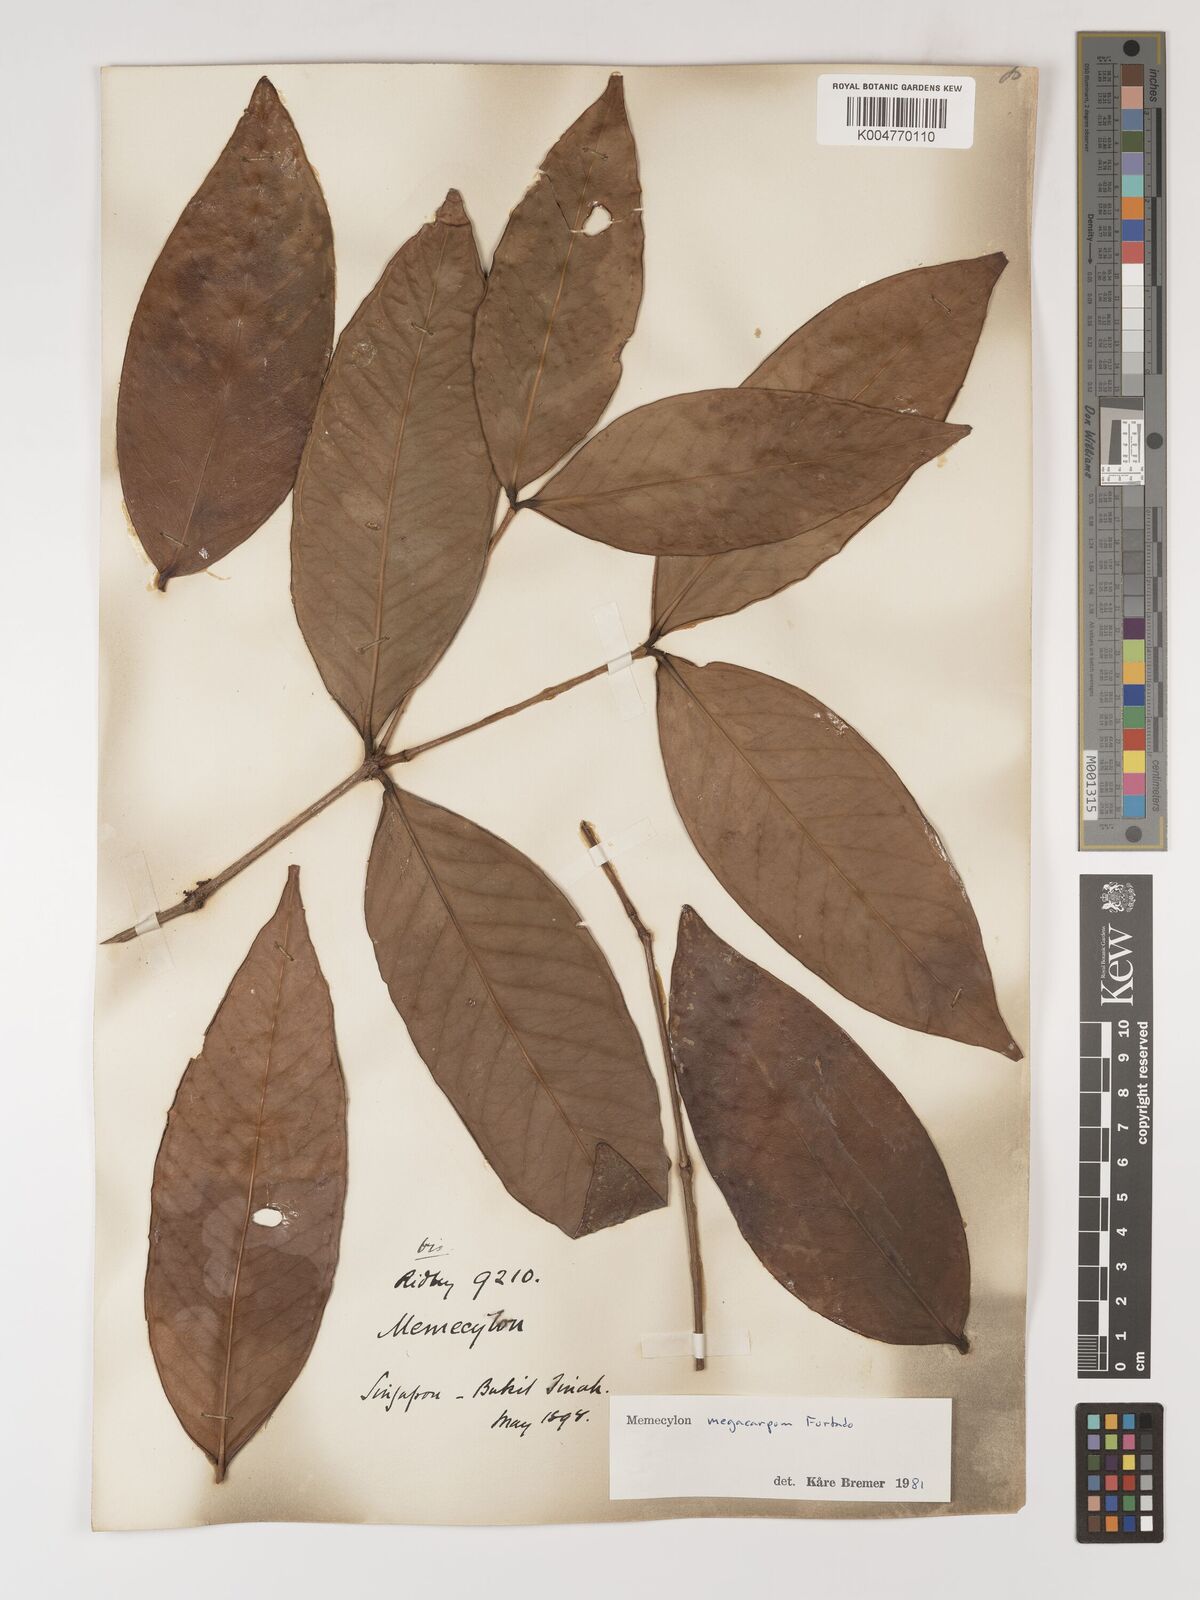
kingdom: Plantae
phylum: Tracheophyta
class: Magnoliopsida
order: Myrtales
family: Melastomataceae
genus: Memecylon
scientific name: Memecylon megacarpum
